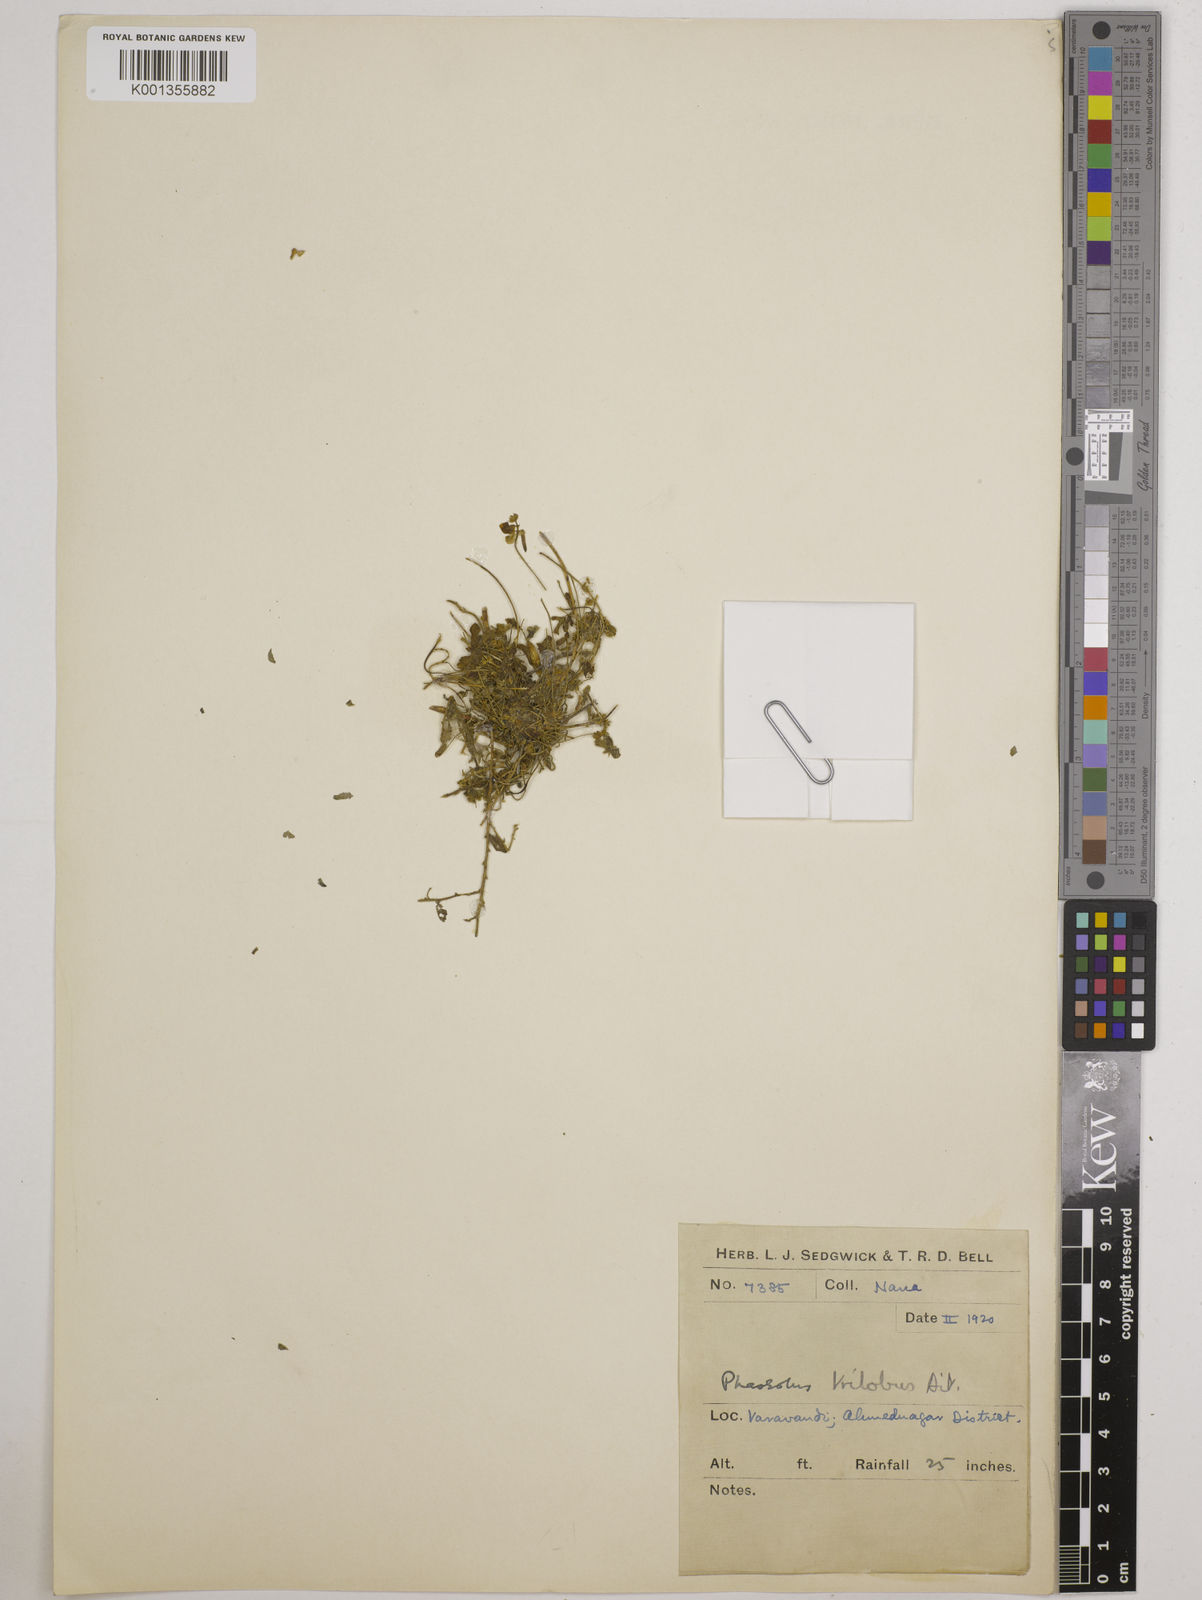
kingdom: Plantae
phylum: Tracheophyta
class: Magnoliopsida
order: Fabales
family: Fabaceae
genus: Vigna
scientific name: Vigna trilobata
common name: Jungli-bean
